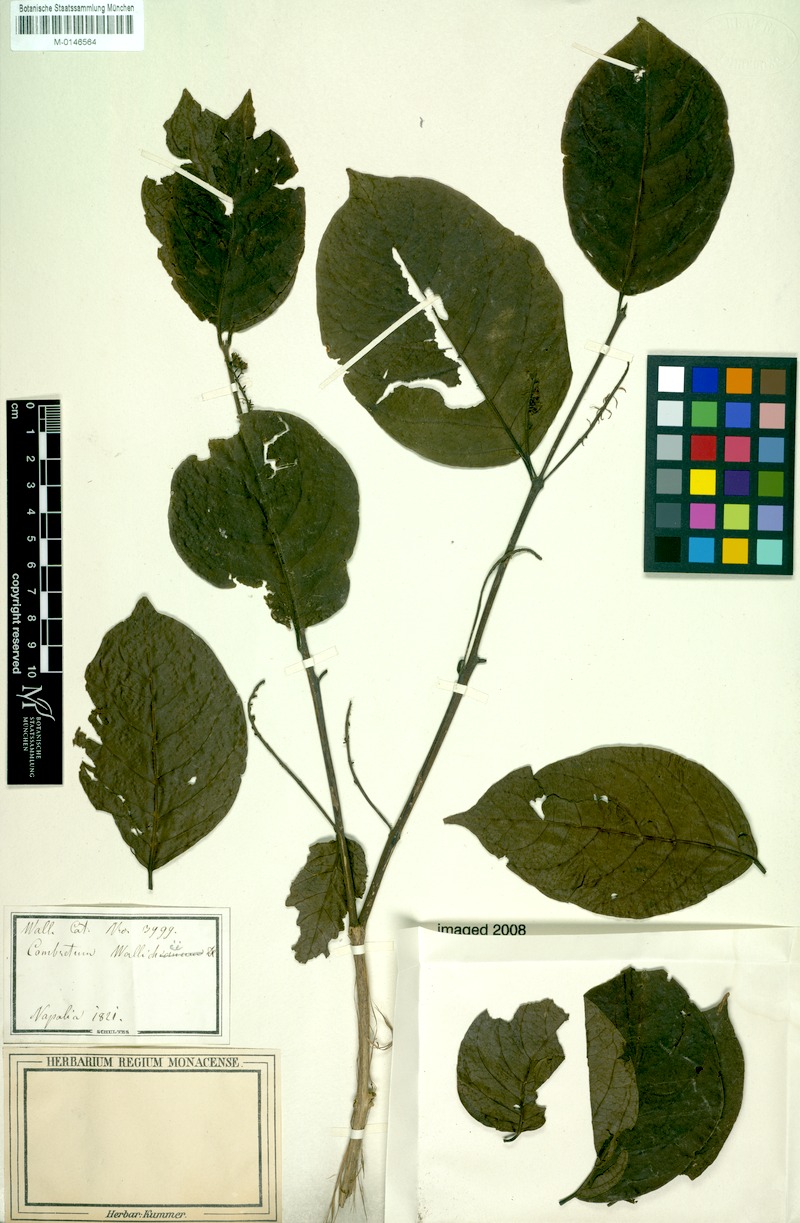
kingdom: Plantae
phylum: Tracheophyta
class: Magnoliopsida
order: Myrtales
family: Combretaceae
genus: Combretum
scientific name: Combretum wallichii
